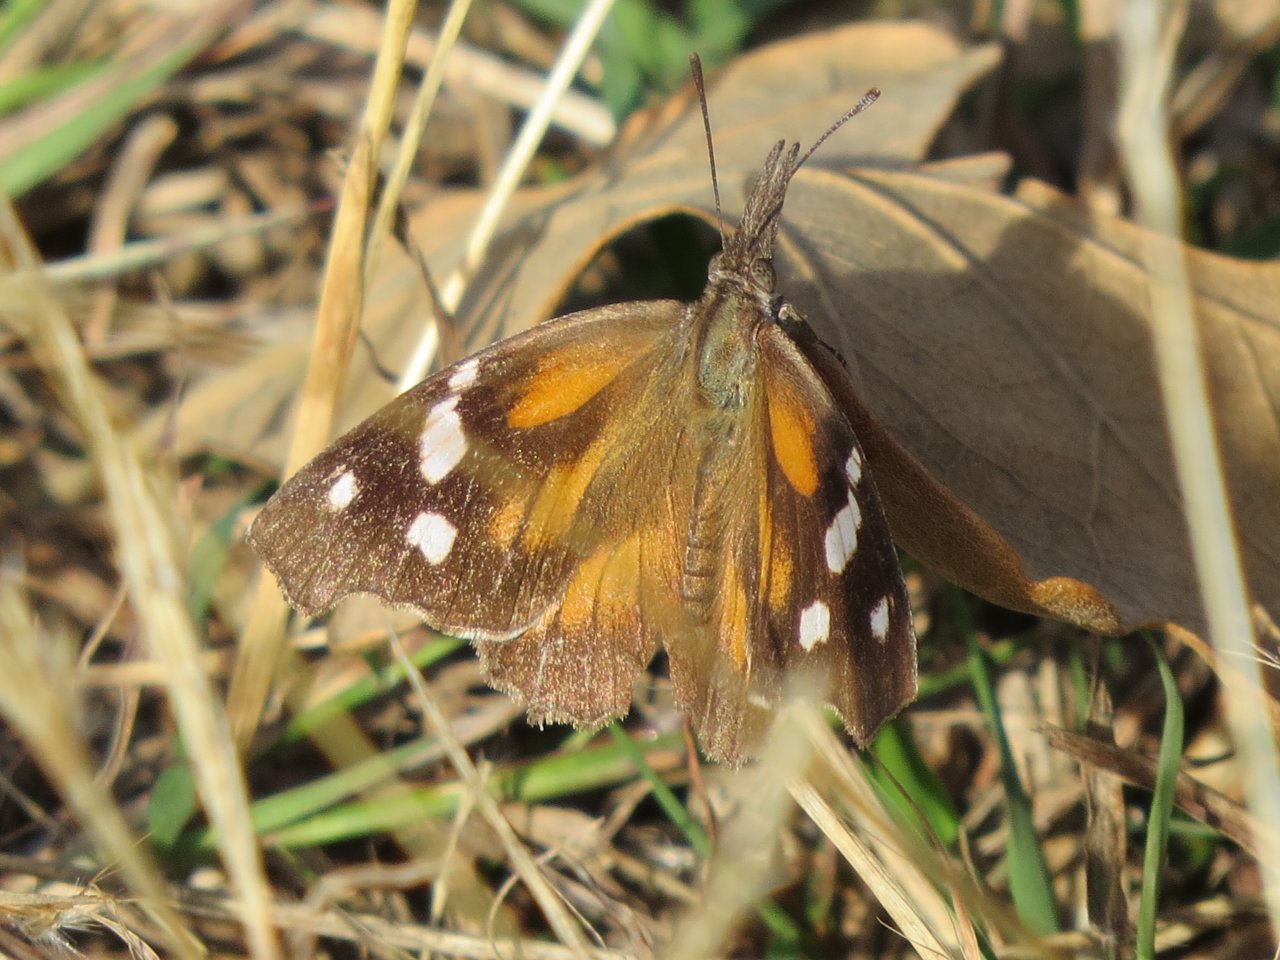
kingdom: Animalia
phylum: Arthropoda
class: Insecta
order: Lepidoptera
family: Nymphalidae
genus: Libytheana
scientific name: Libytheana carinenta
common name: American Snout
